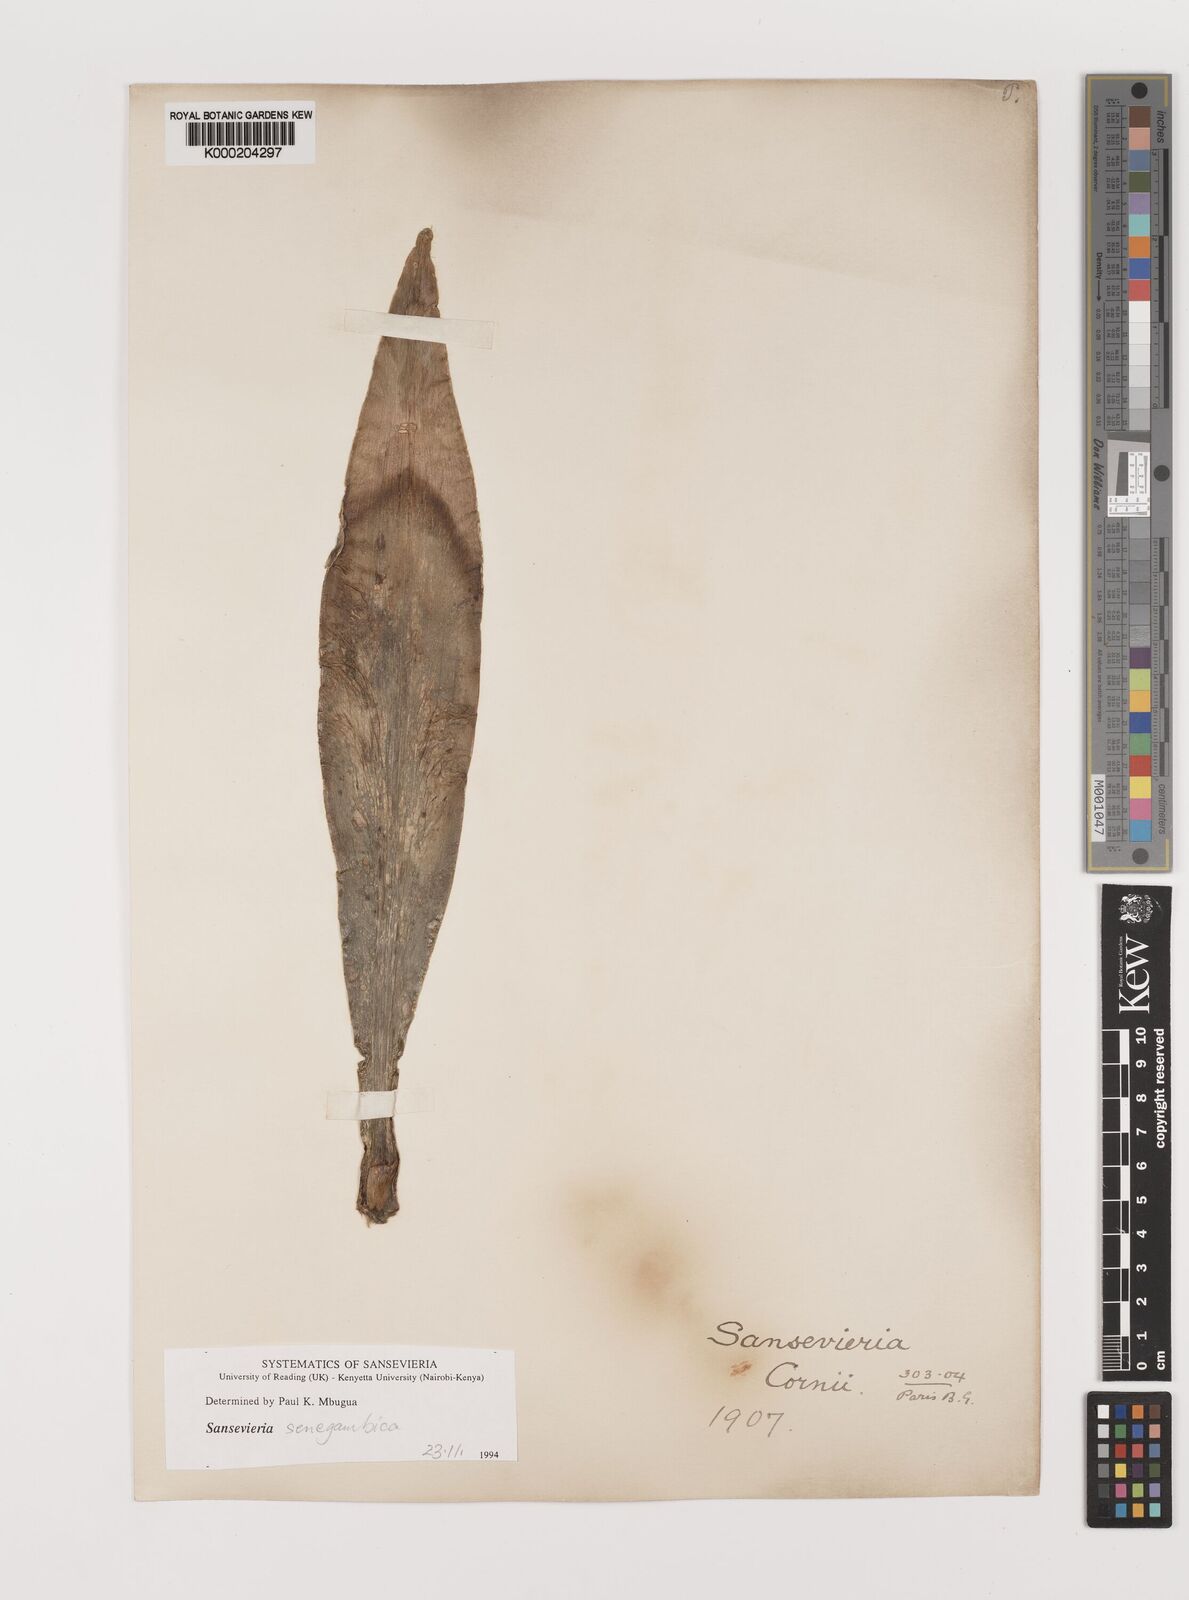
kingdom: Plantae
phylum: Tracheophyta
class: Liliopsida
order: Asparagales
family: Asparagaceae
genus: Dracaena
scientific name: Dracaena senegambica
